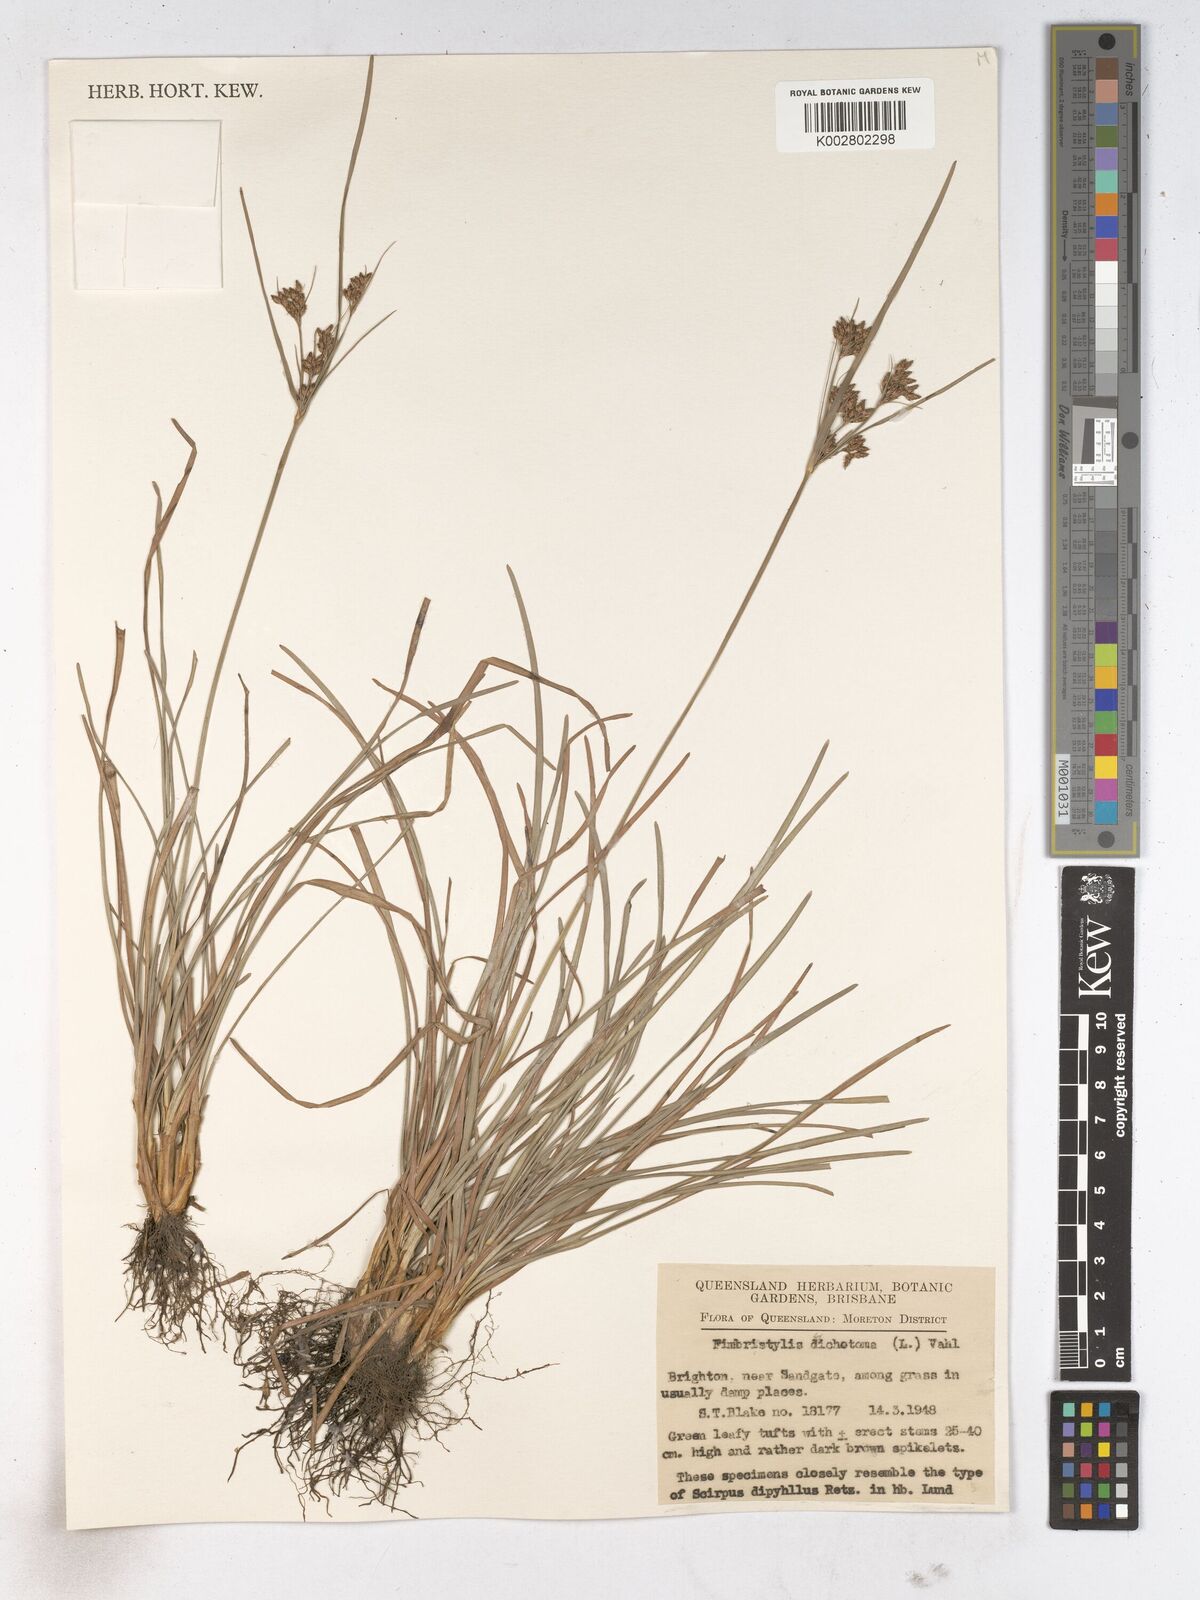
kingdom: Plantae
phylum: Tracheophyta
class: Liliopsida
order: Poales
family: Cyperaceae
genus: Fimbristylis
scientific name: Fimbristylis dichotoma
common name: Forked fimbry
